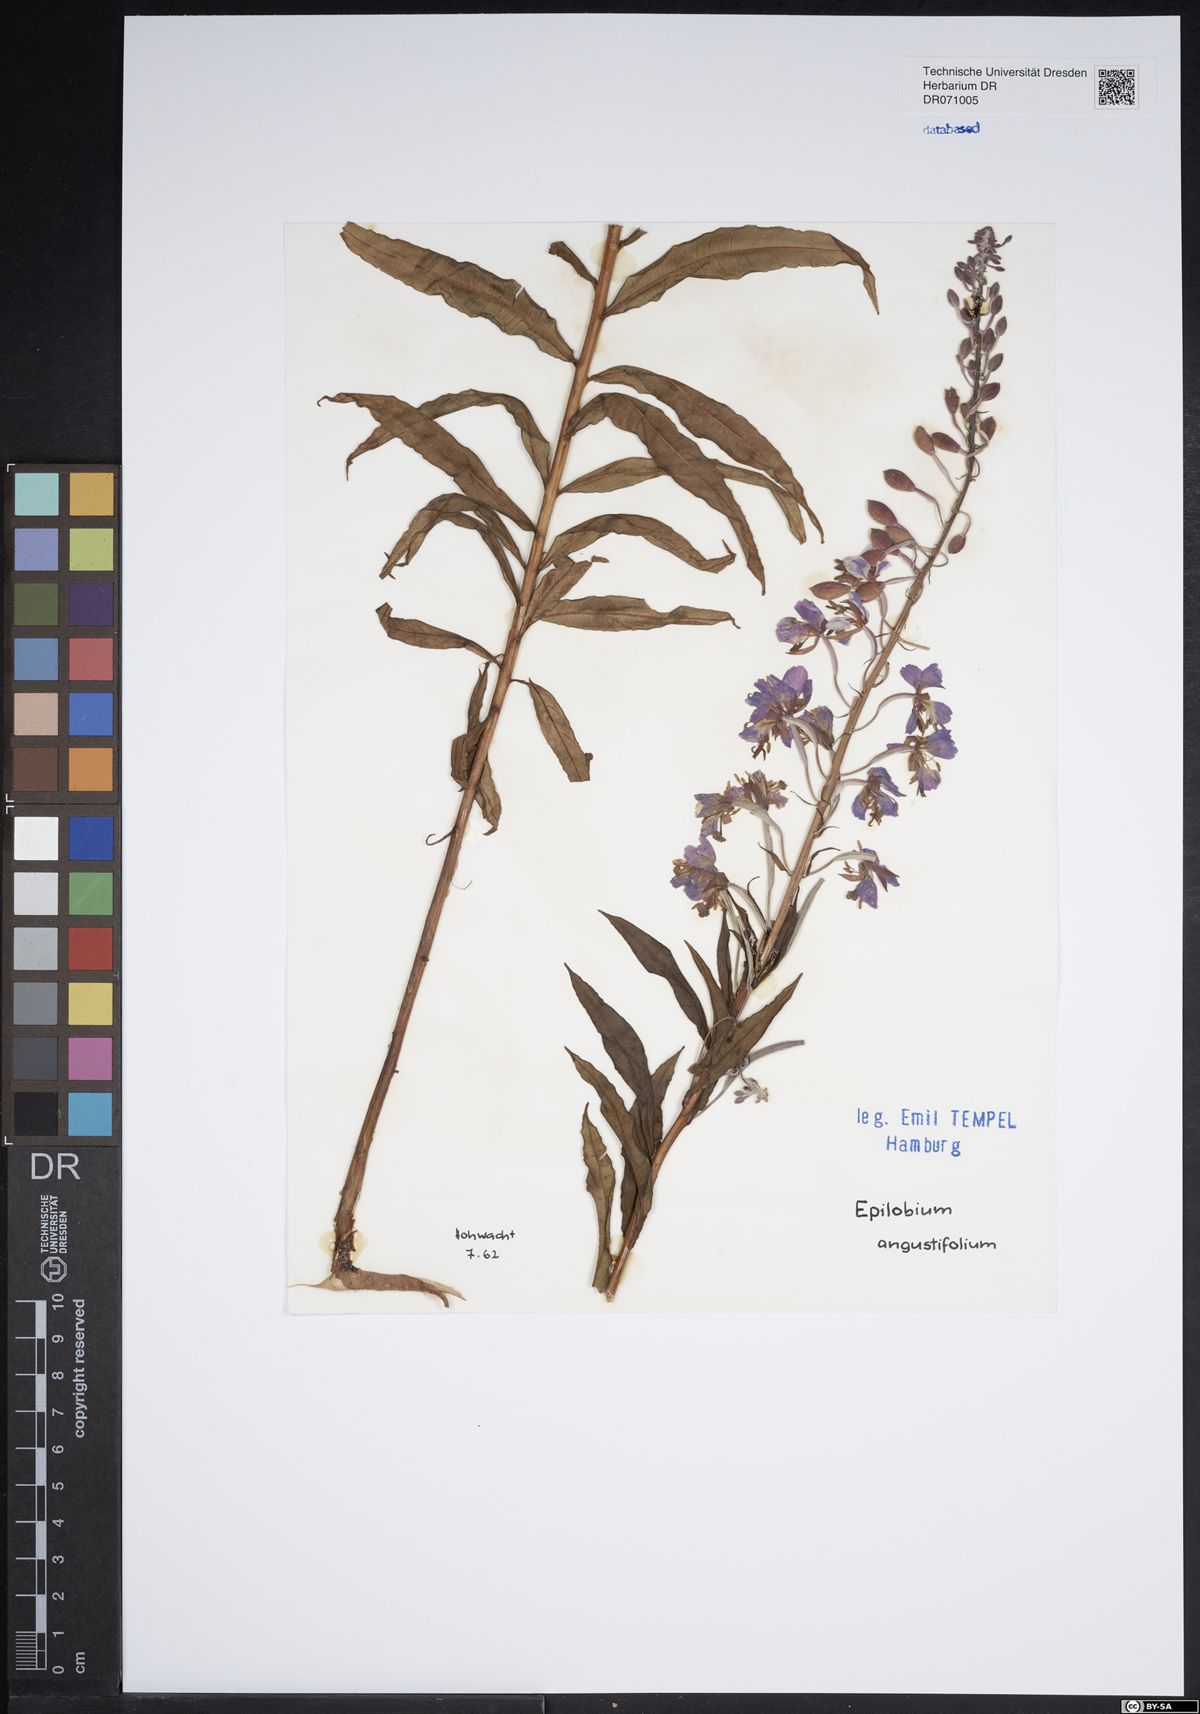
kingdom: Plantae
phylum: Tracheophyta
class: Magnoliopsida
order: Myrtales
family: Onagraceae
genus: Chamaenerion
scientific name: Chamaenerion angustifolium
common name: Fireweed
